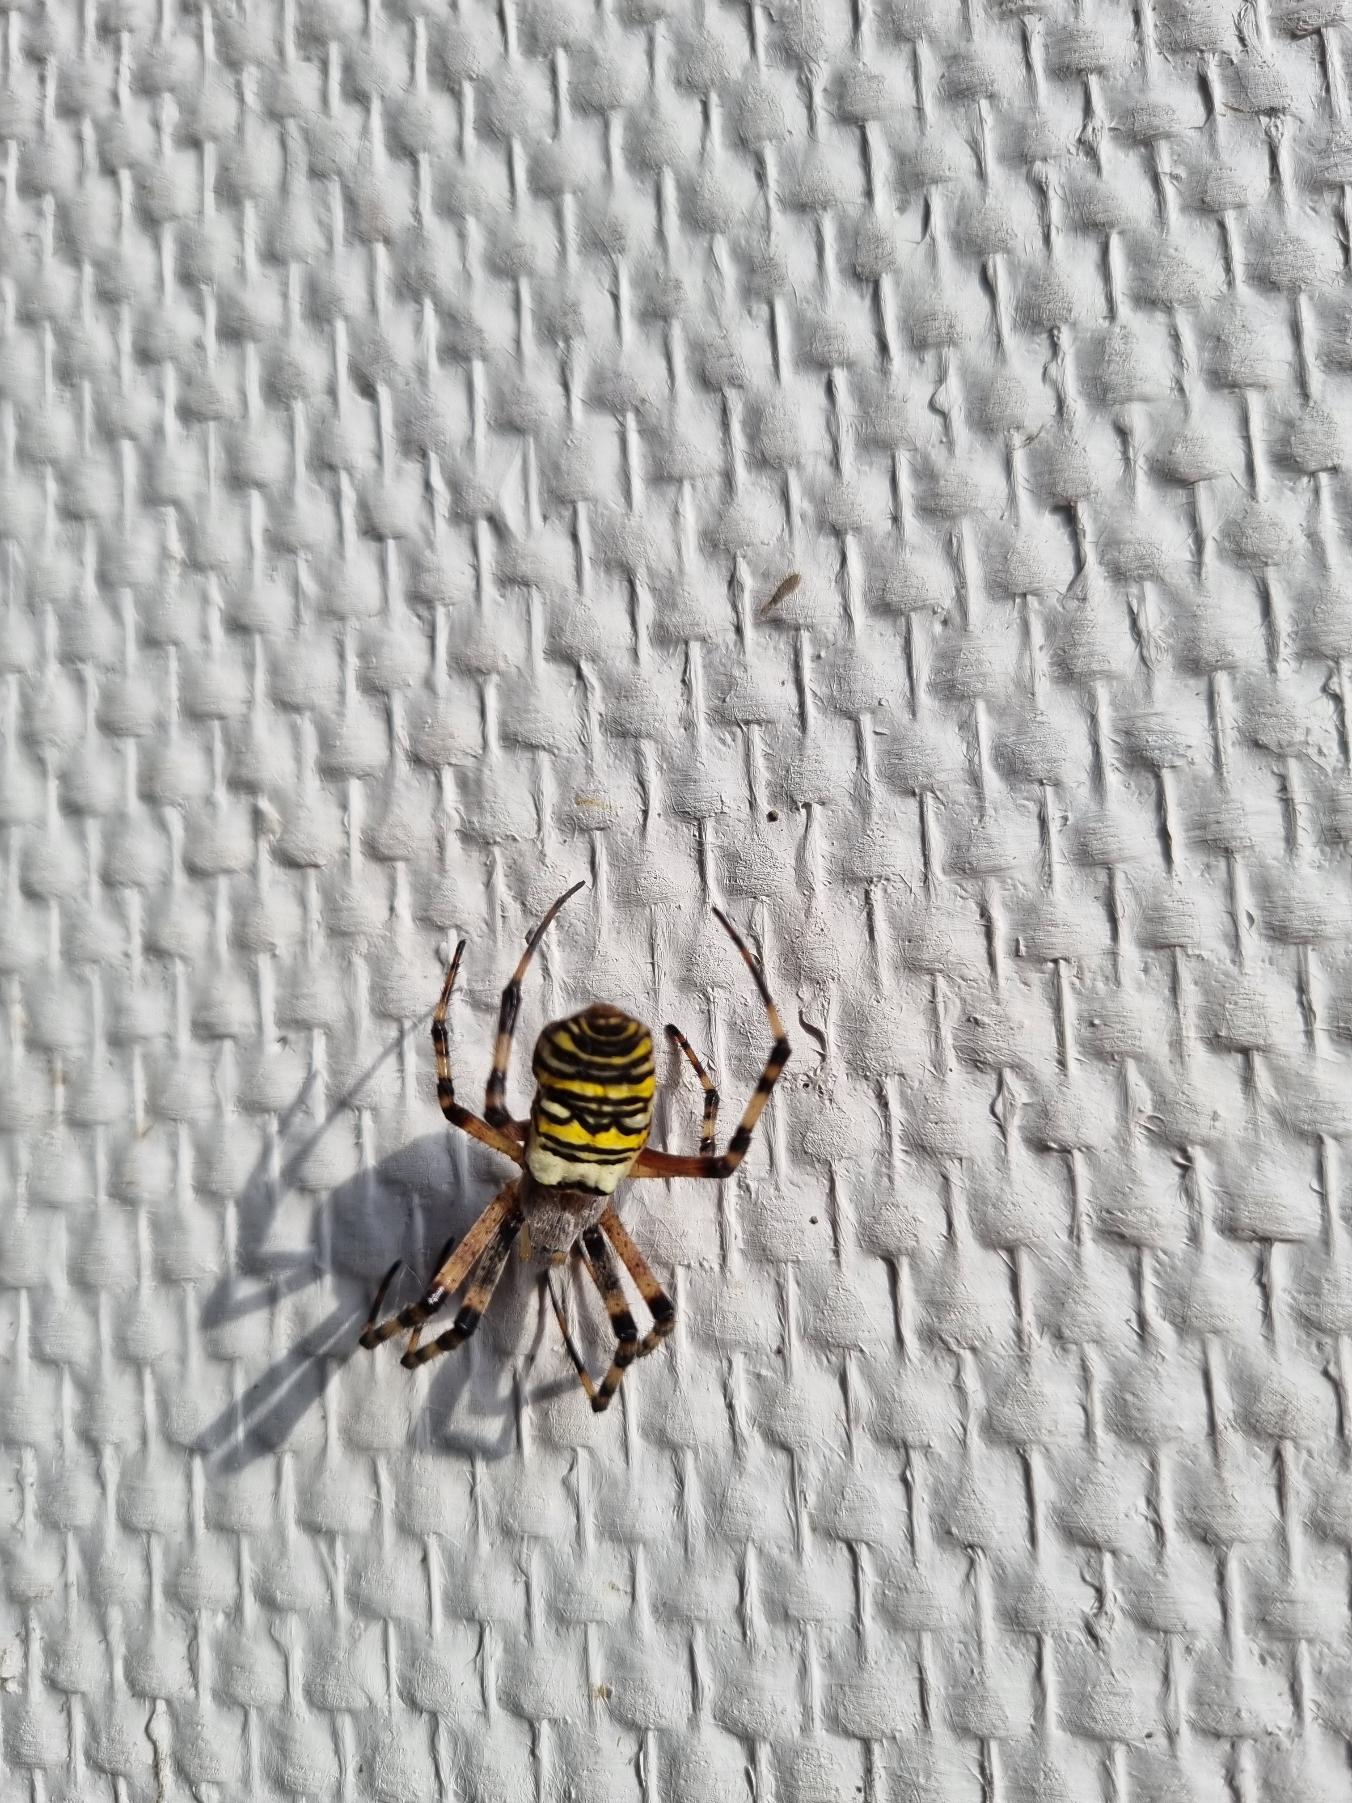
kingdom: Animalia
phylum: Arthropoda
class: Arachnida
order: Araneae
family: Araneidae
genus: Argiope
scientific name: Argiope bruennichi
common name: Hvepseedderkop
